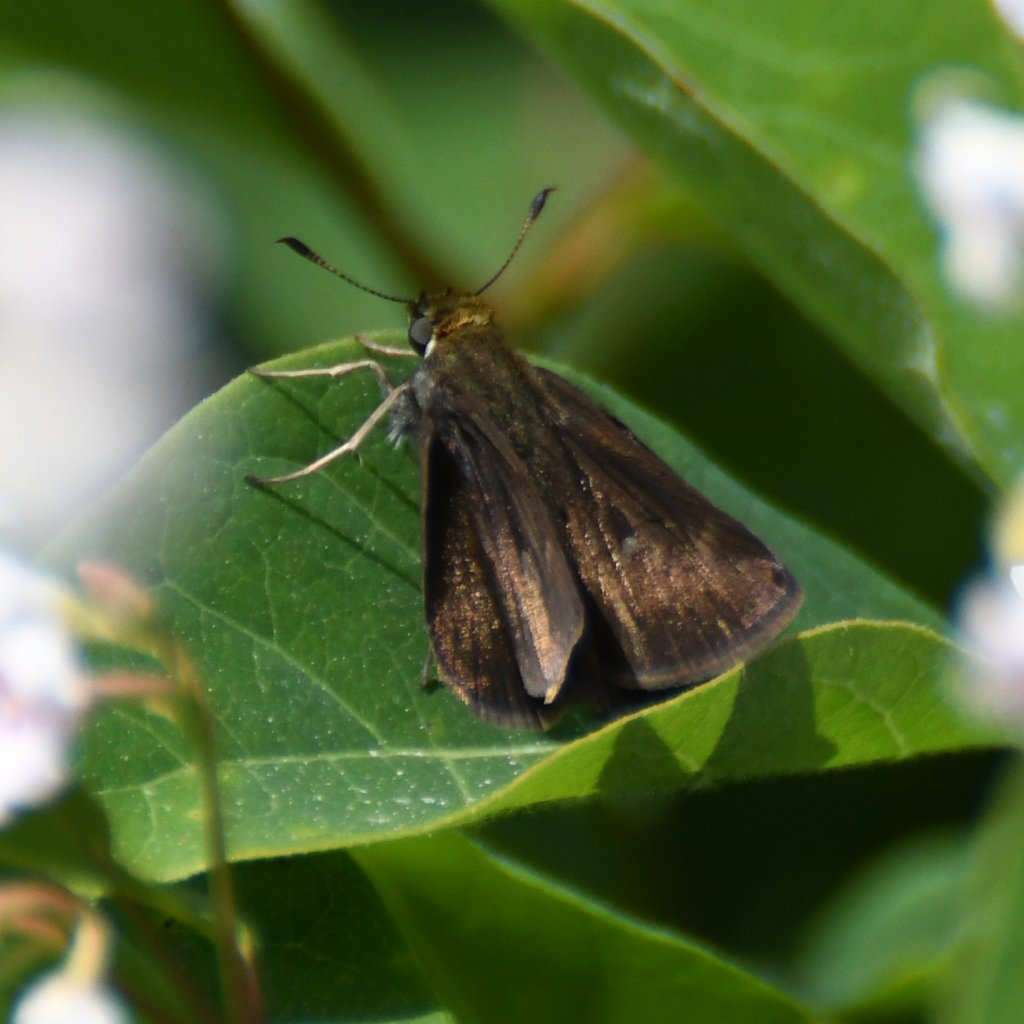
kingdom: Animalia
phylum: Arthropoda
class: Insecta
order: Lepidoptera
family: Hesperiidae
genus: Euphyes
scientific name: Euphyes vestris
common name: Dun Skipper
